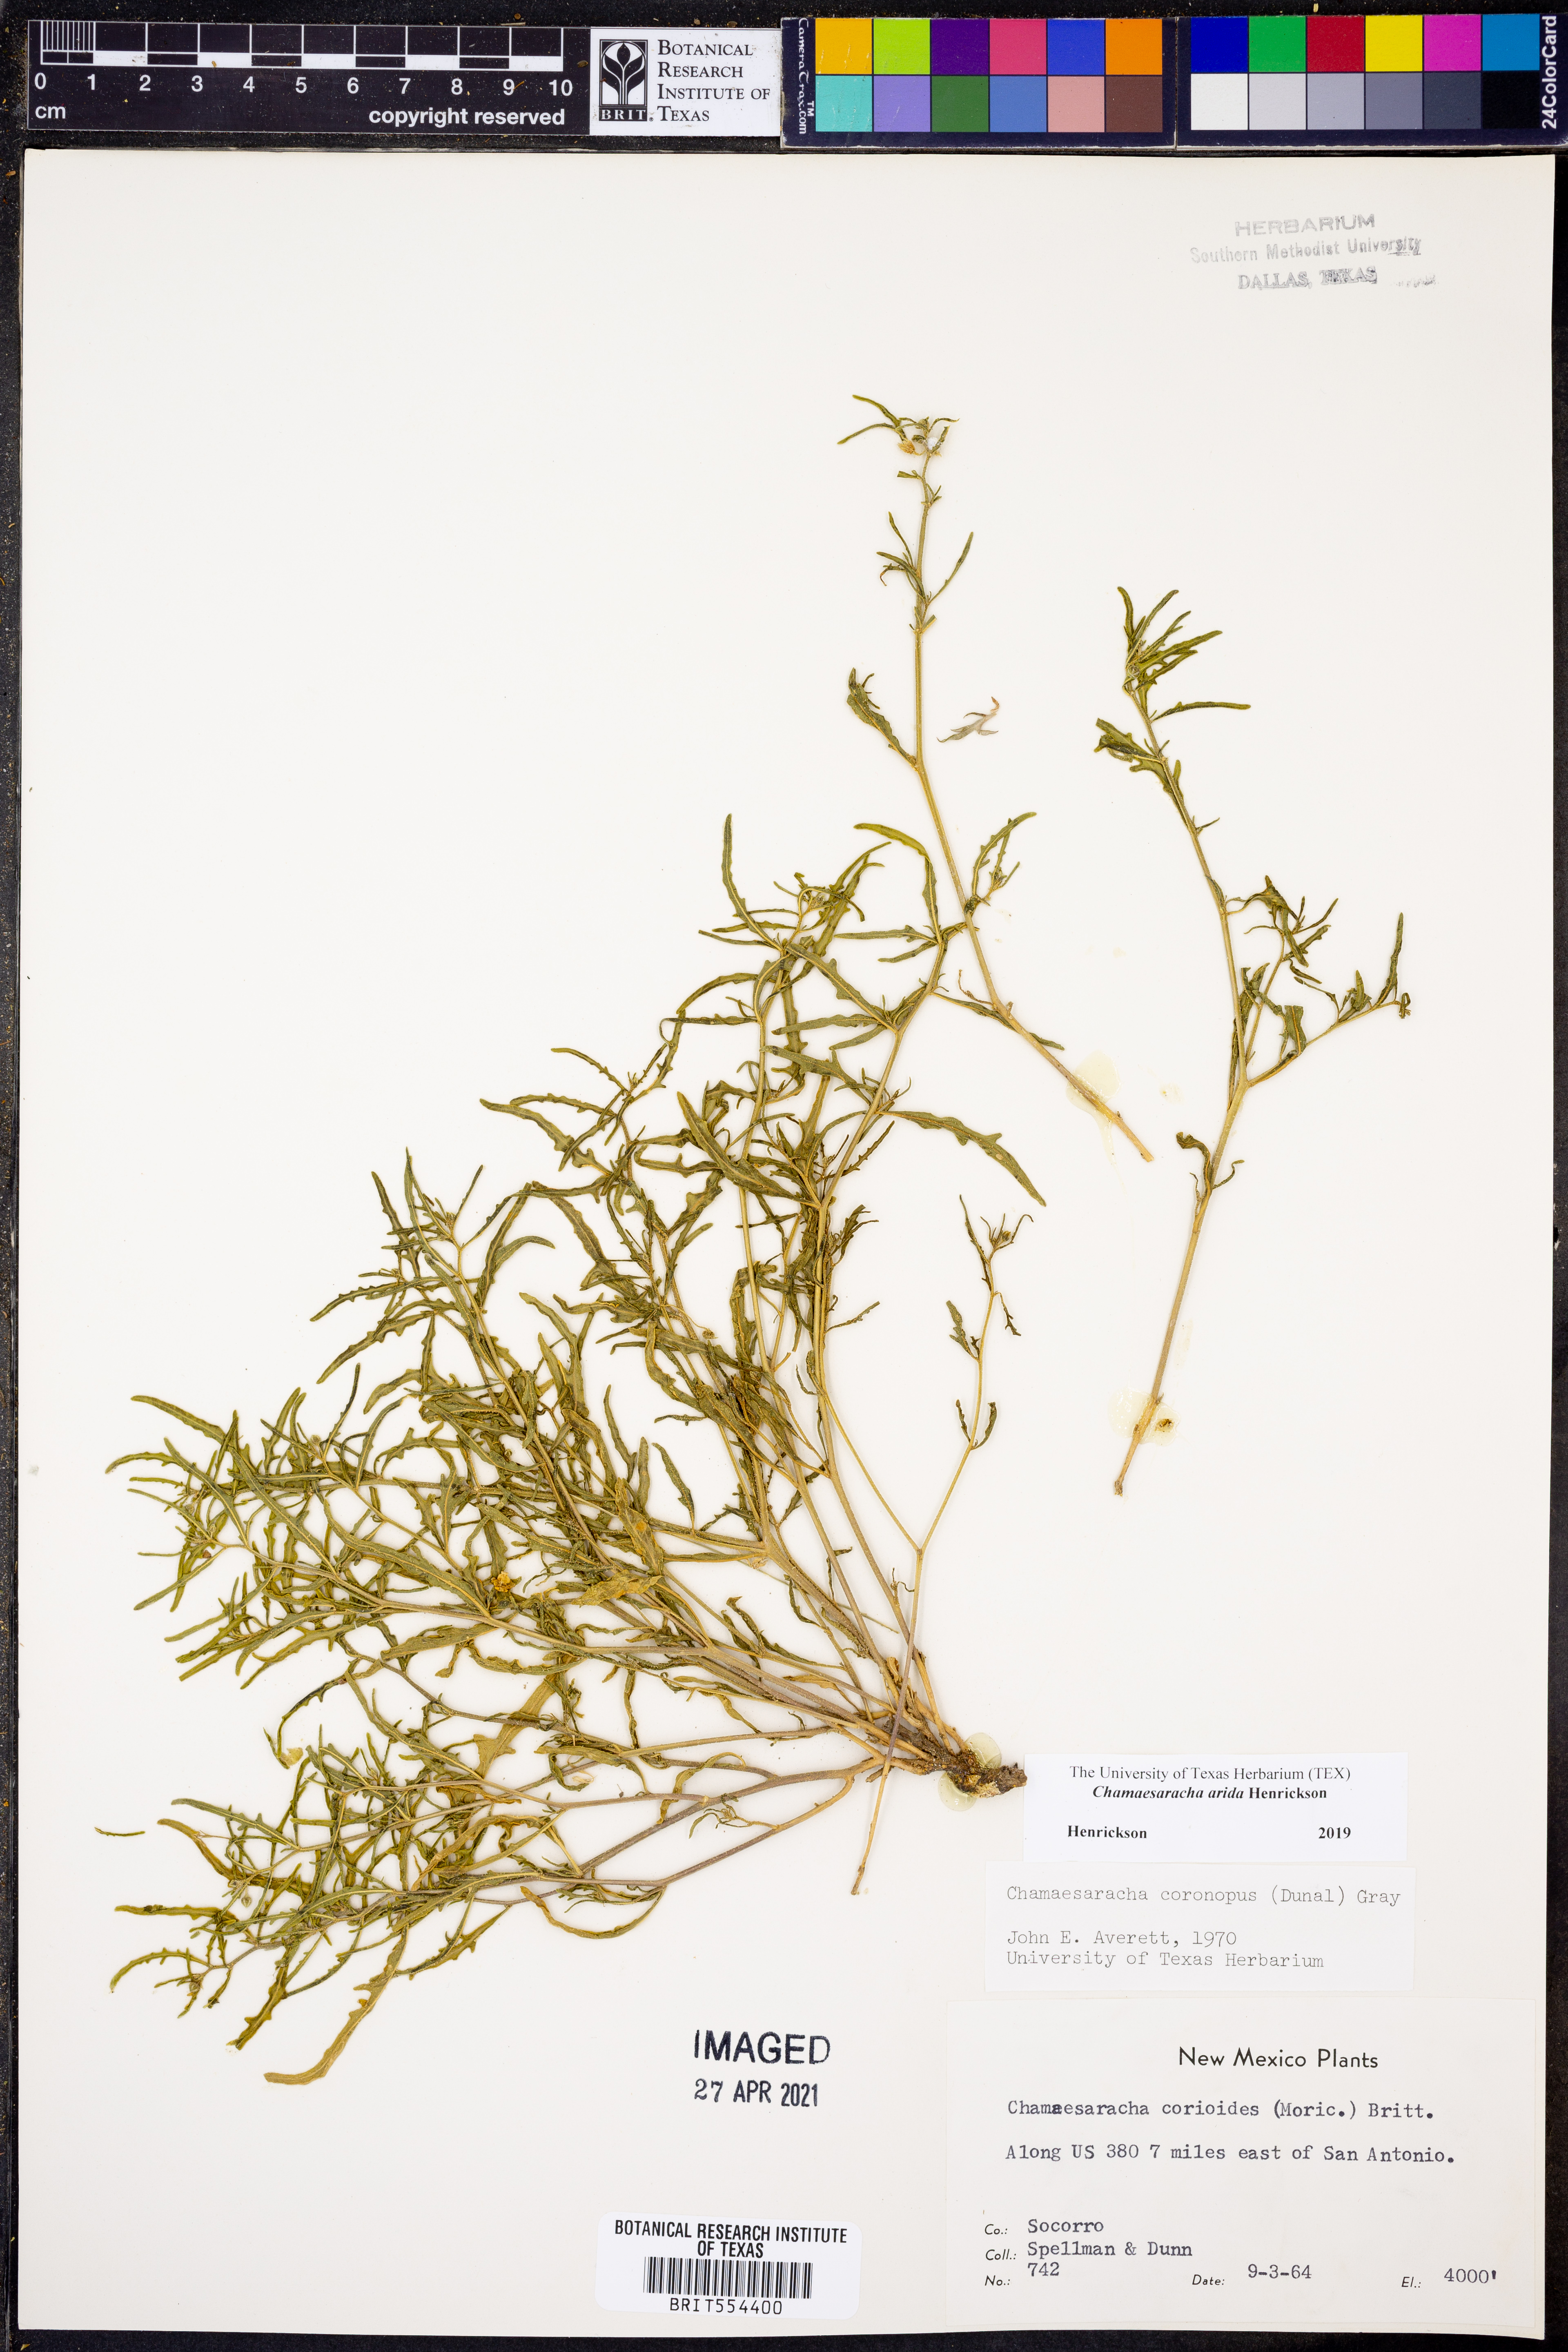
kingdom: Plantae
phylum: Tracheophyta
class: Magnoliopsida
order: Solanales
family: Solanaceae
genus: Chamaesaracha
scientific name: Chamaesaracha arida
